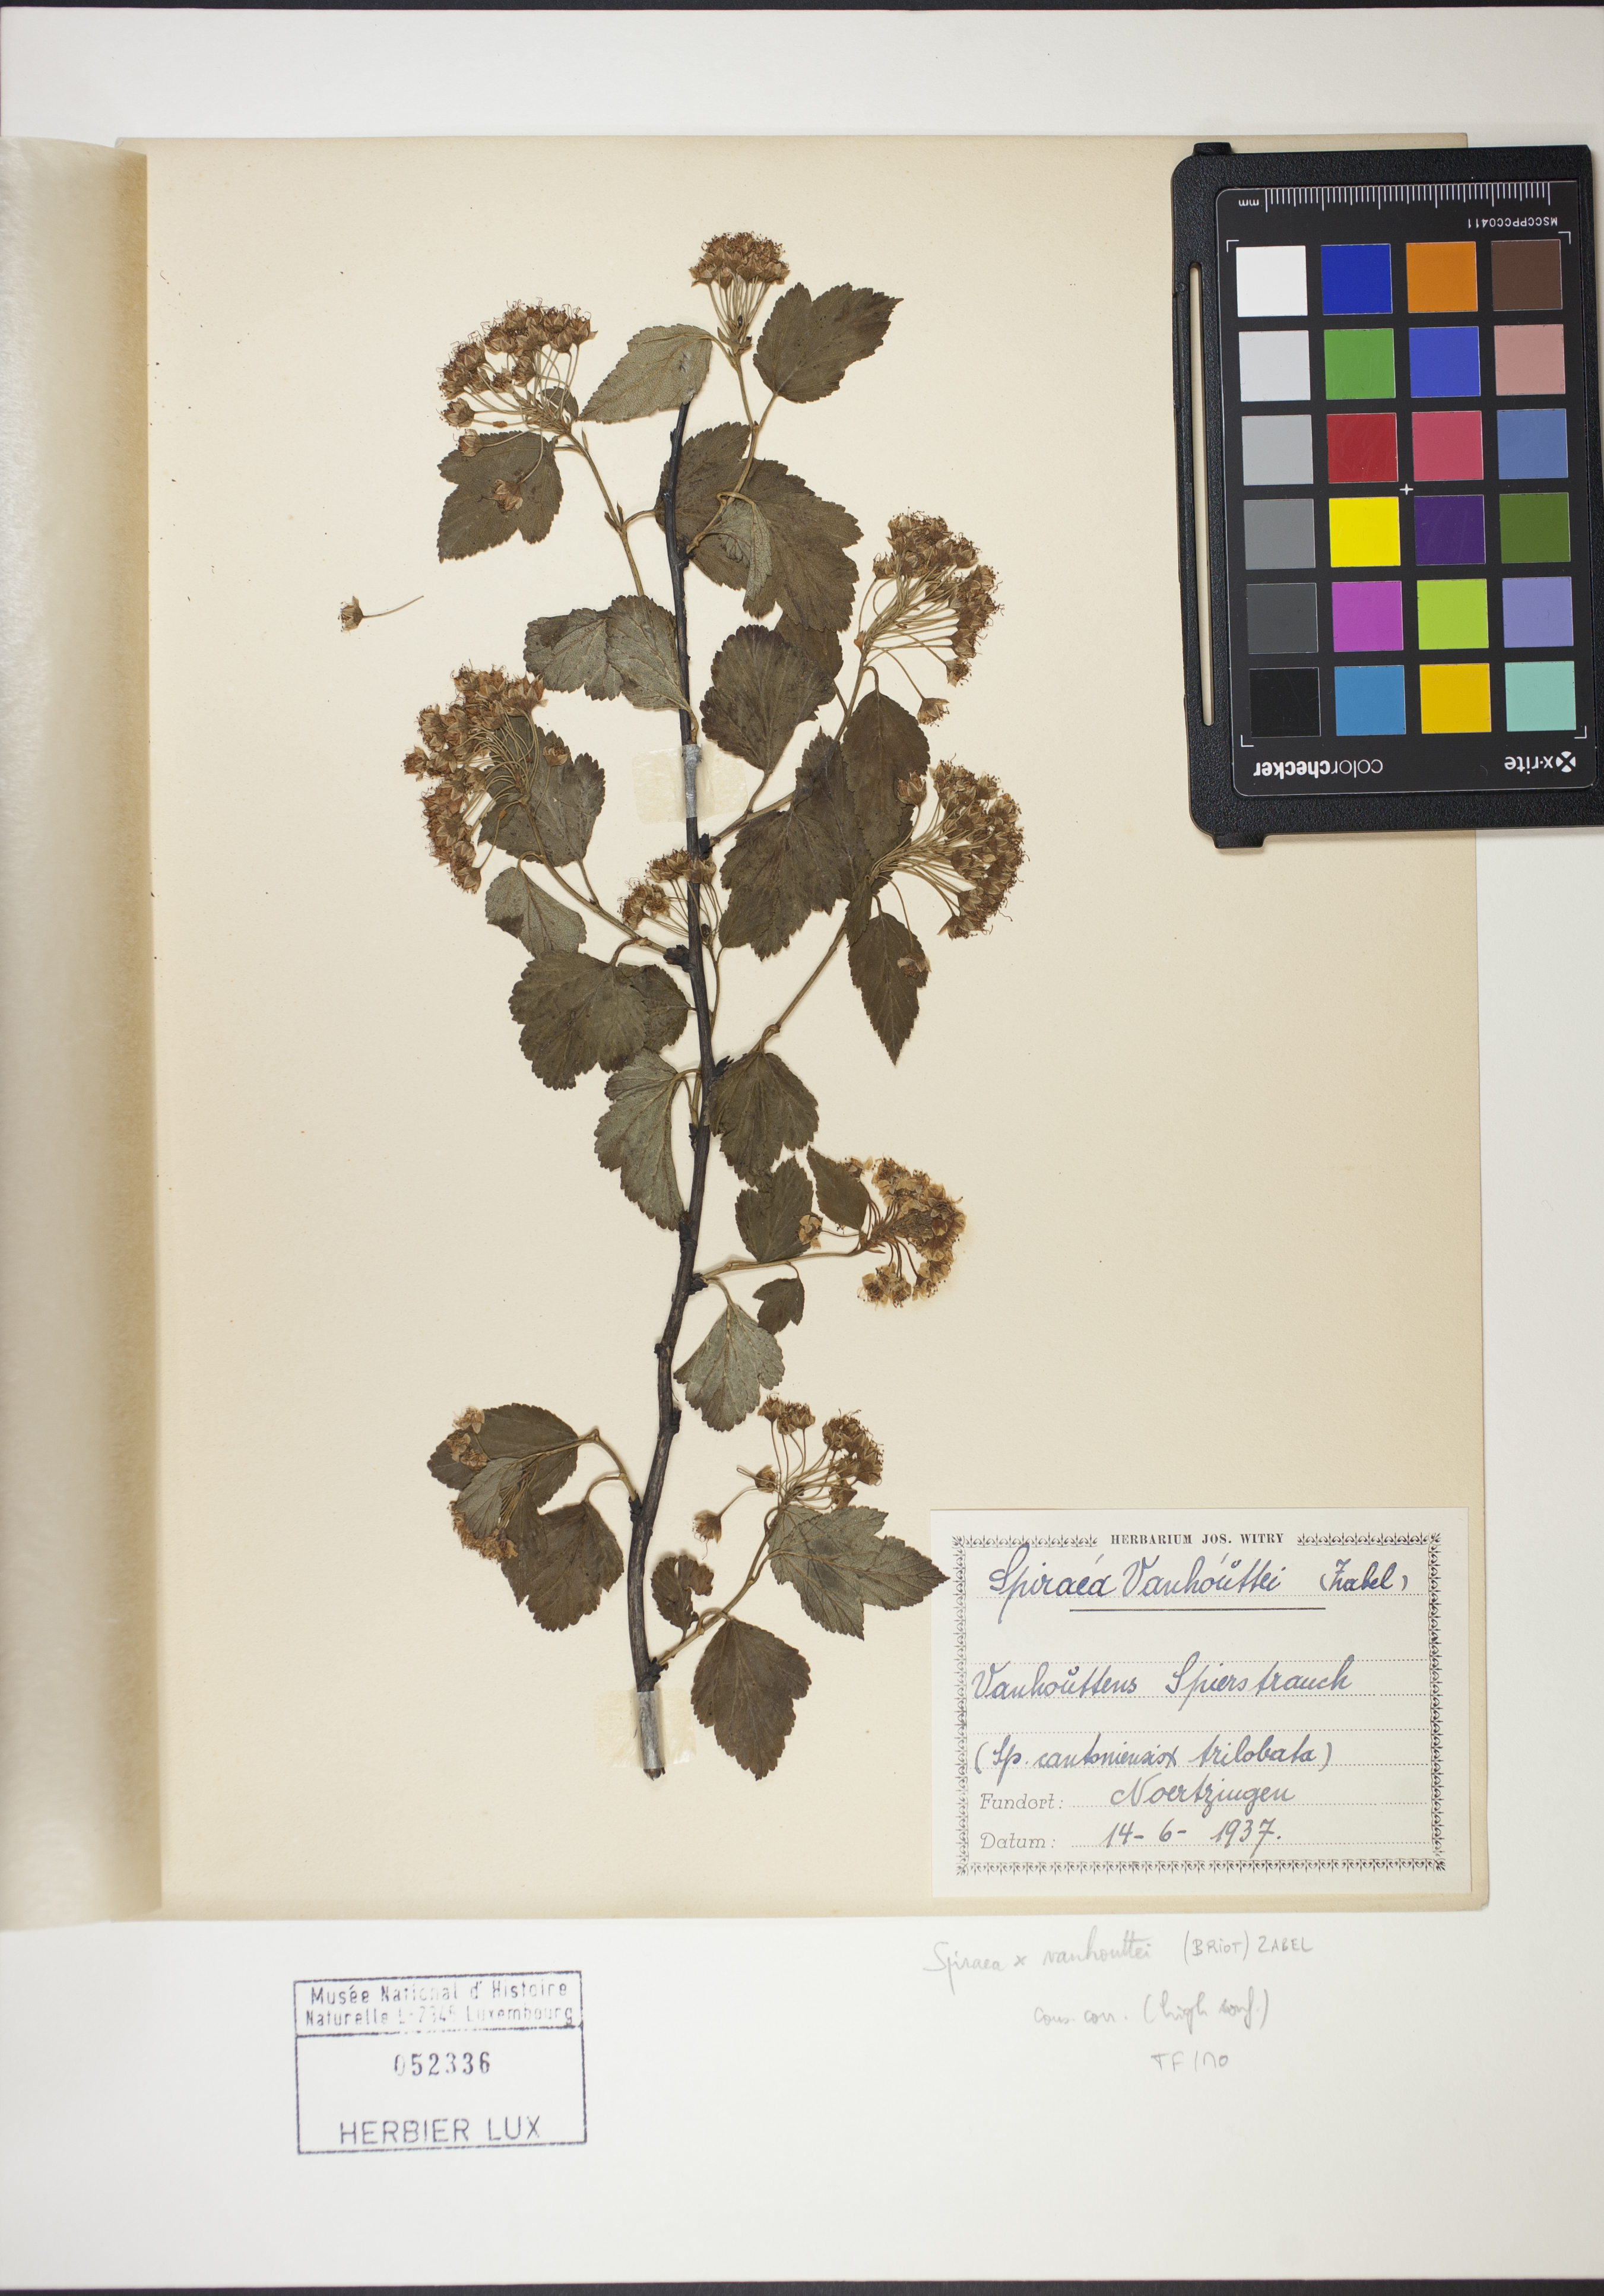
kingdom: Plantae
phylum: Tracheophyta
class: Magnoliopsida
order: Rosales
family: Rosaceae
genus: Spiraea
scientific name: Spiraea vanhouttei
